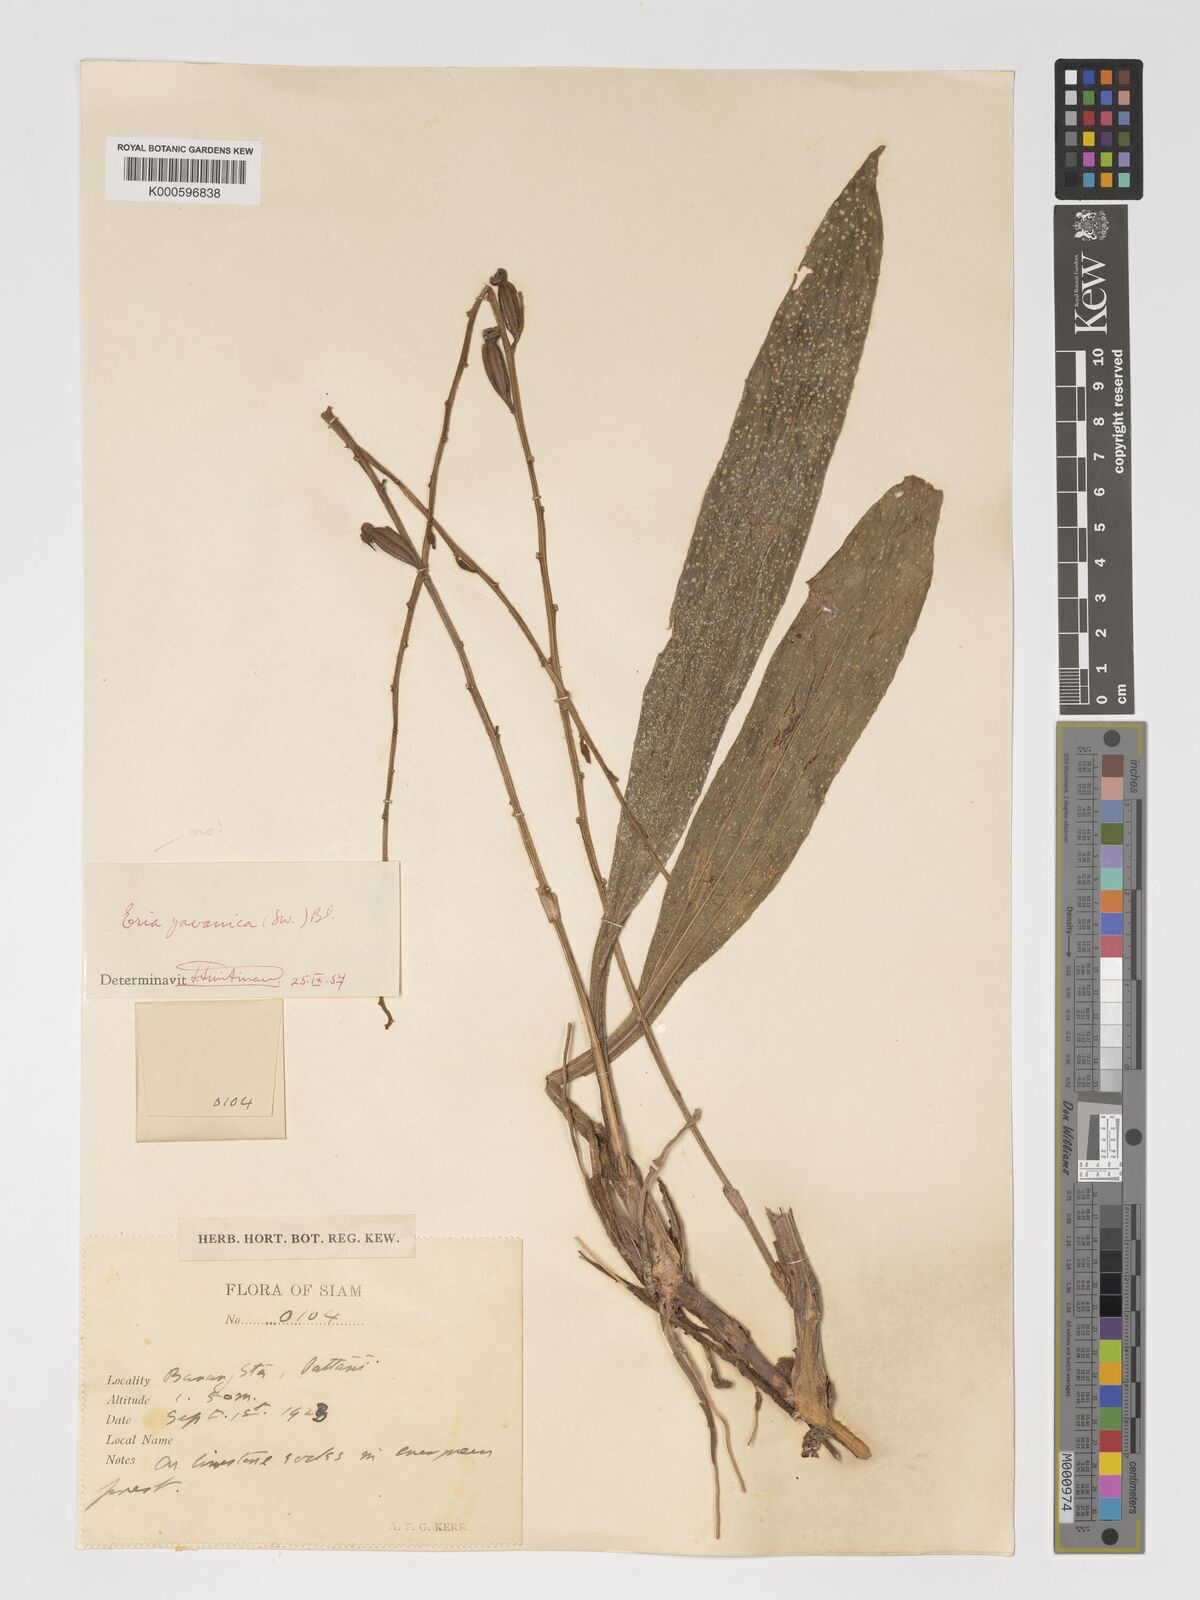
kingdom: Plantae
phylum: Tracheophyta
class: Liliopsida
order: Asparagales
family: Orchidaceae
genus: Eria
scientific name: Eria javanica
